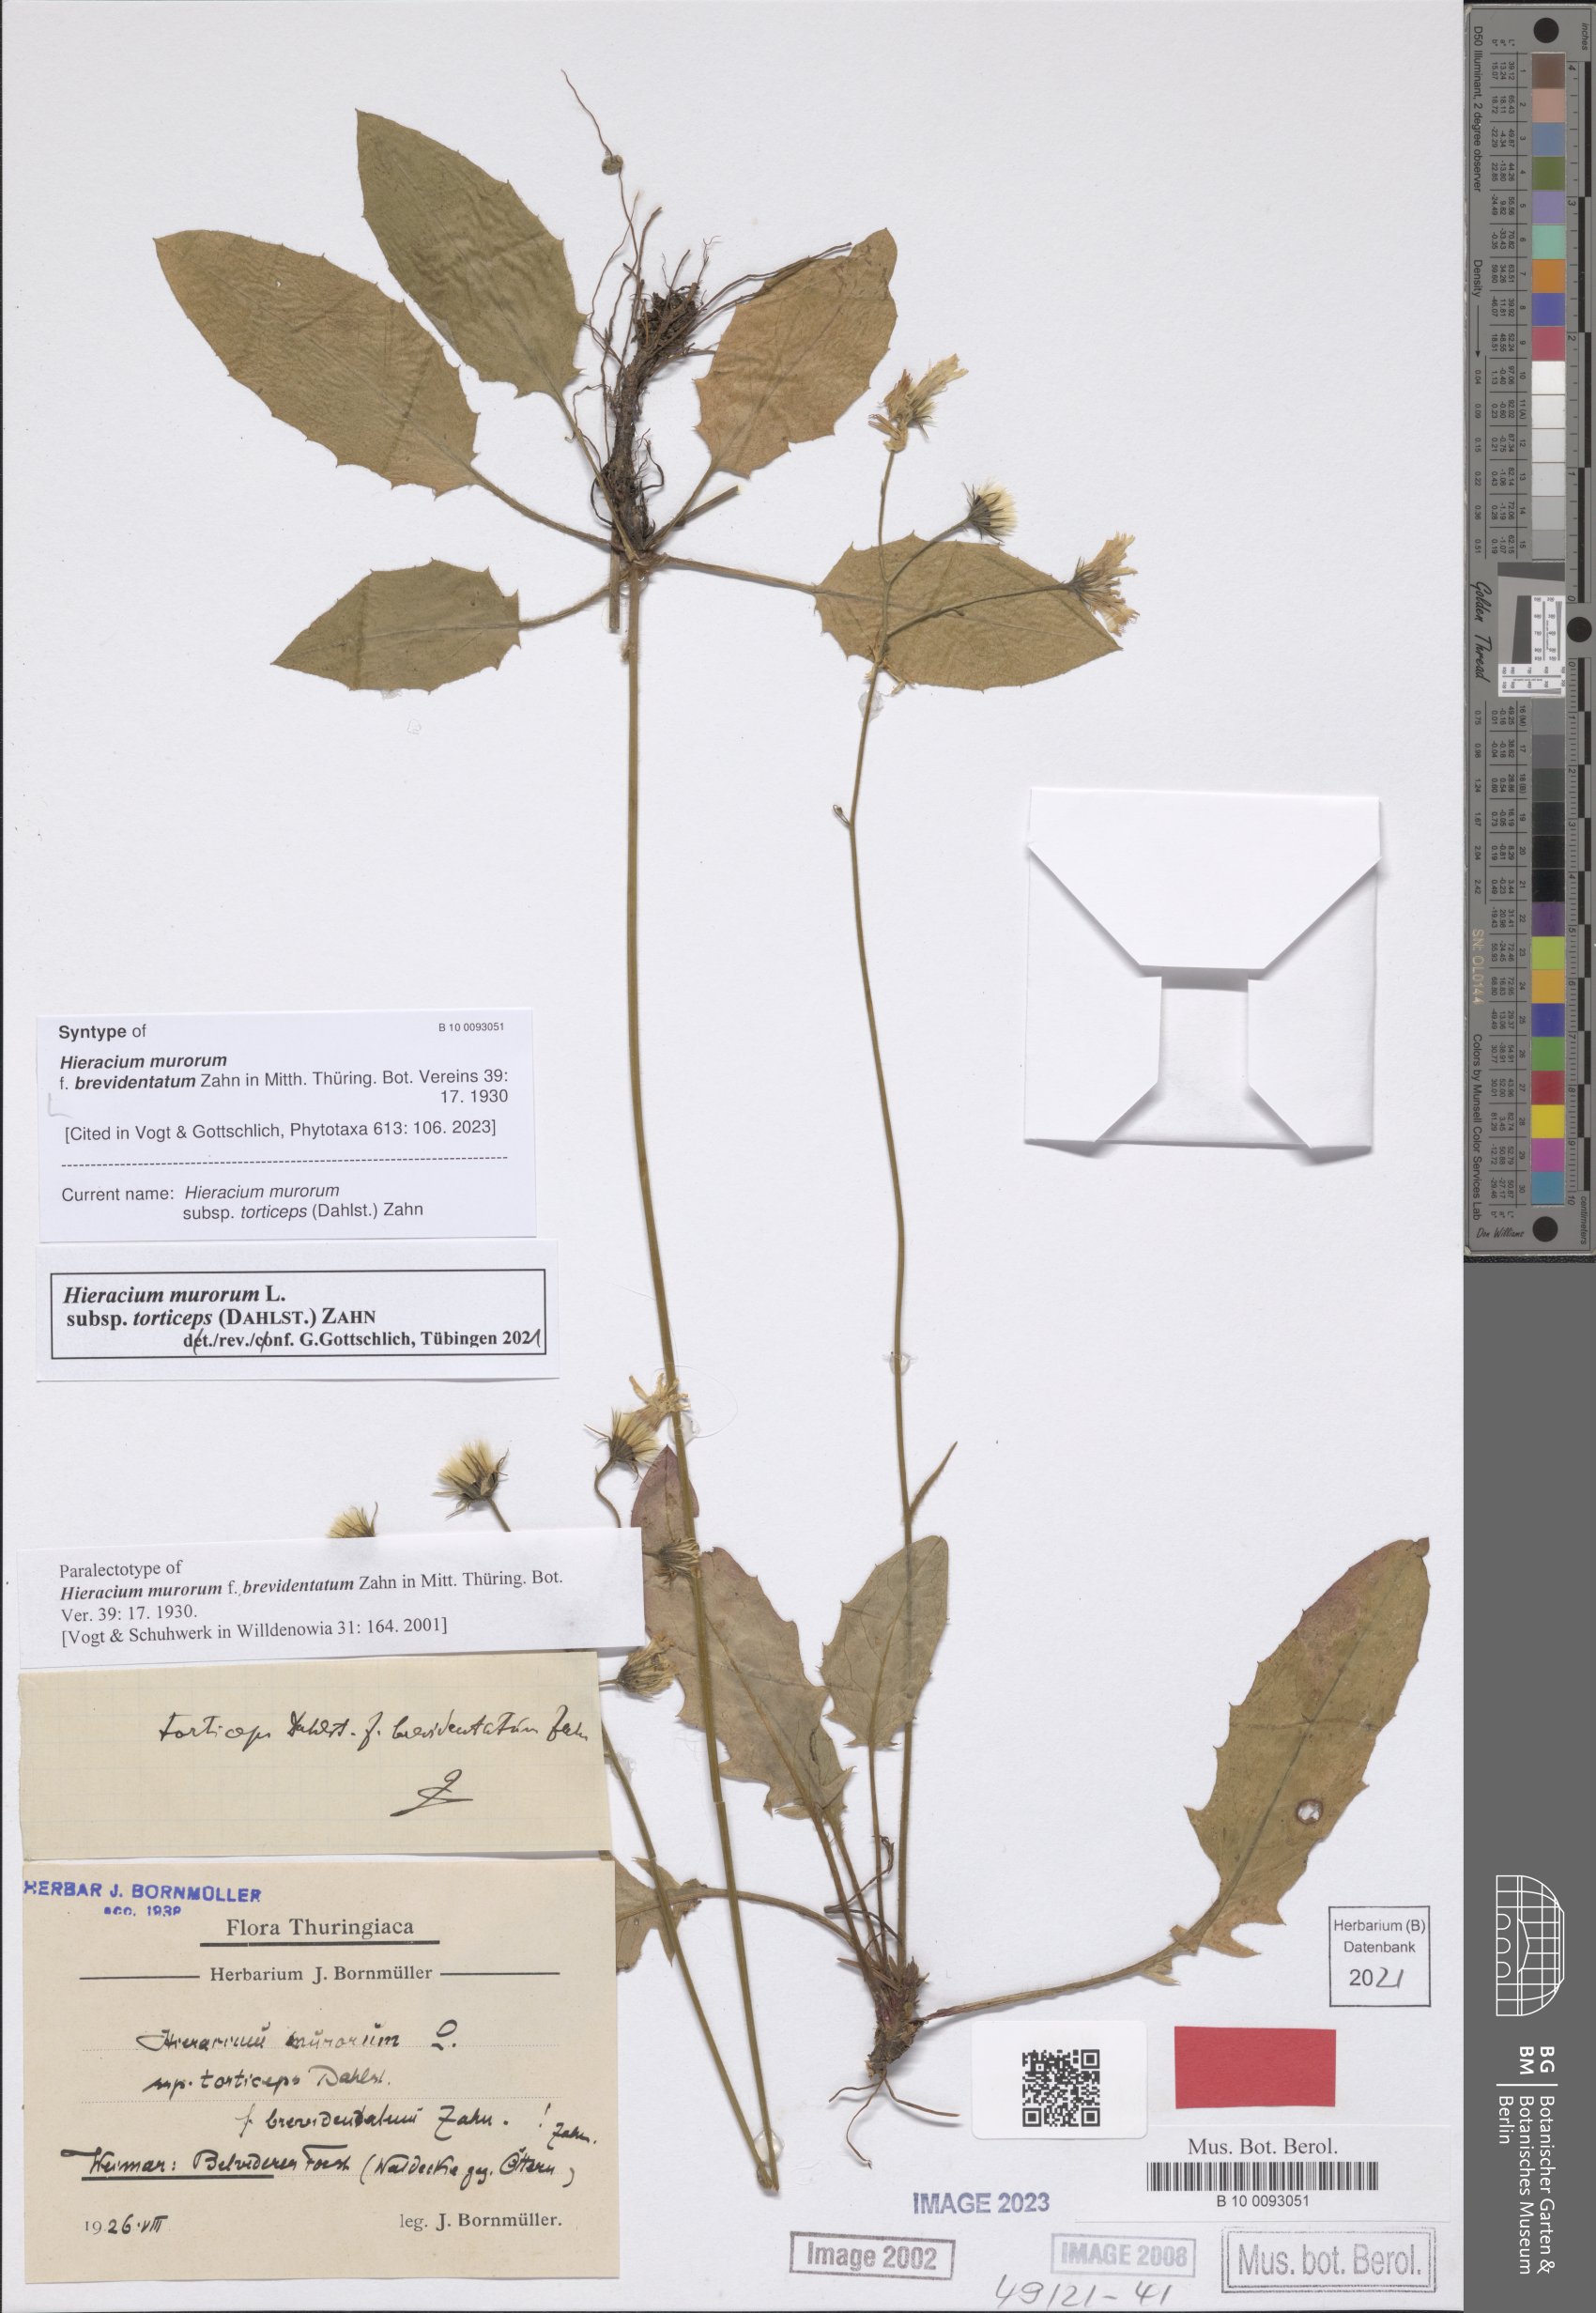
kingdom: Plantae
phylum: Tracheophyta
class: Magnoliopsida
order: Asterales
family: Asteraceae
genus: Hieracium
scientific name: Hieracium murorum
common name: Wall hawkweed
